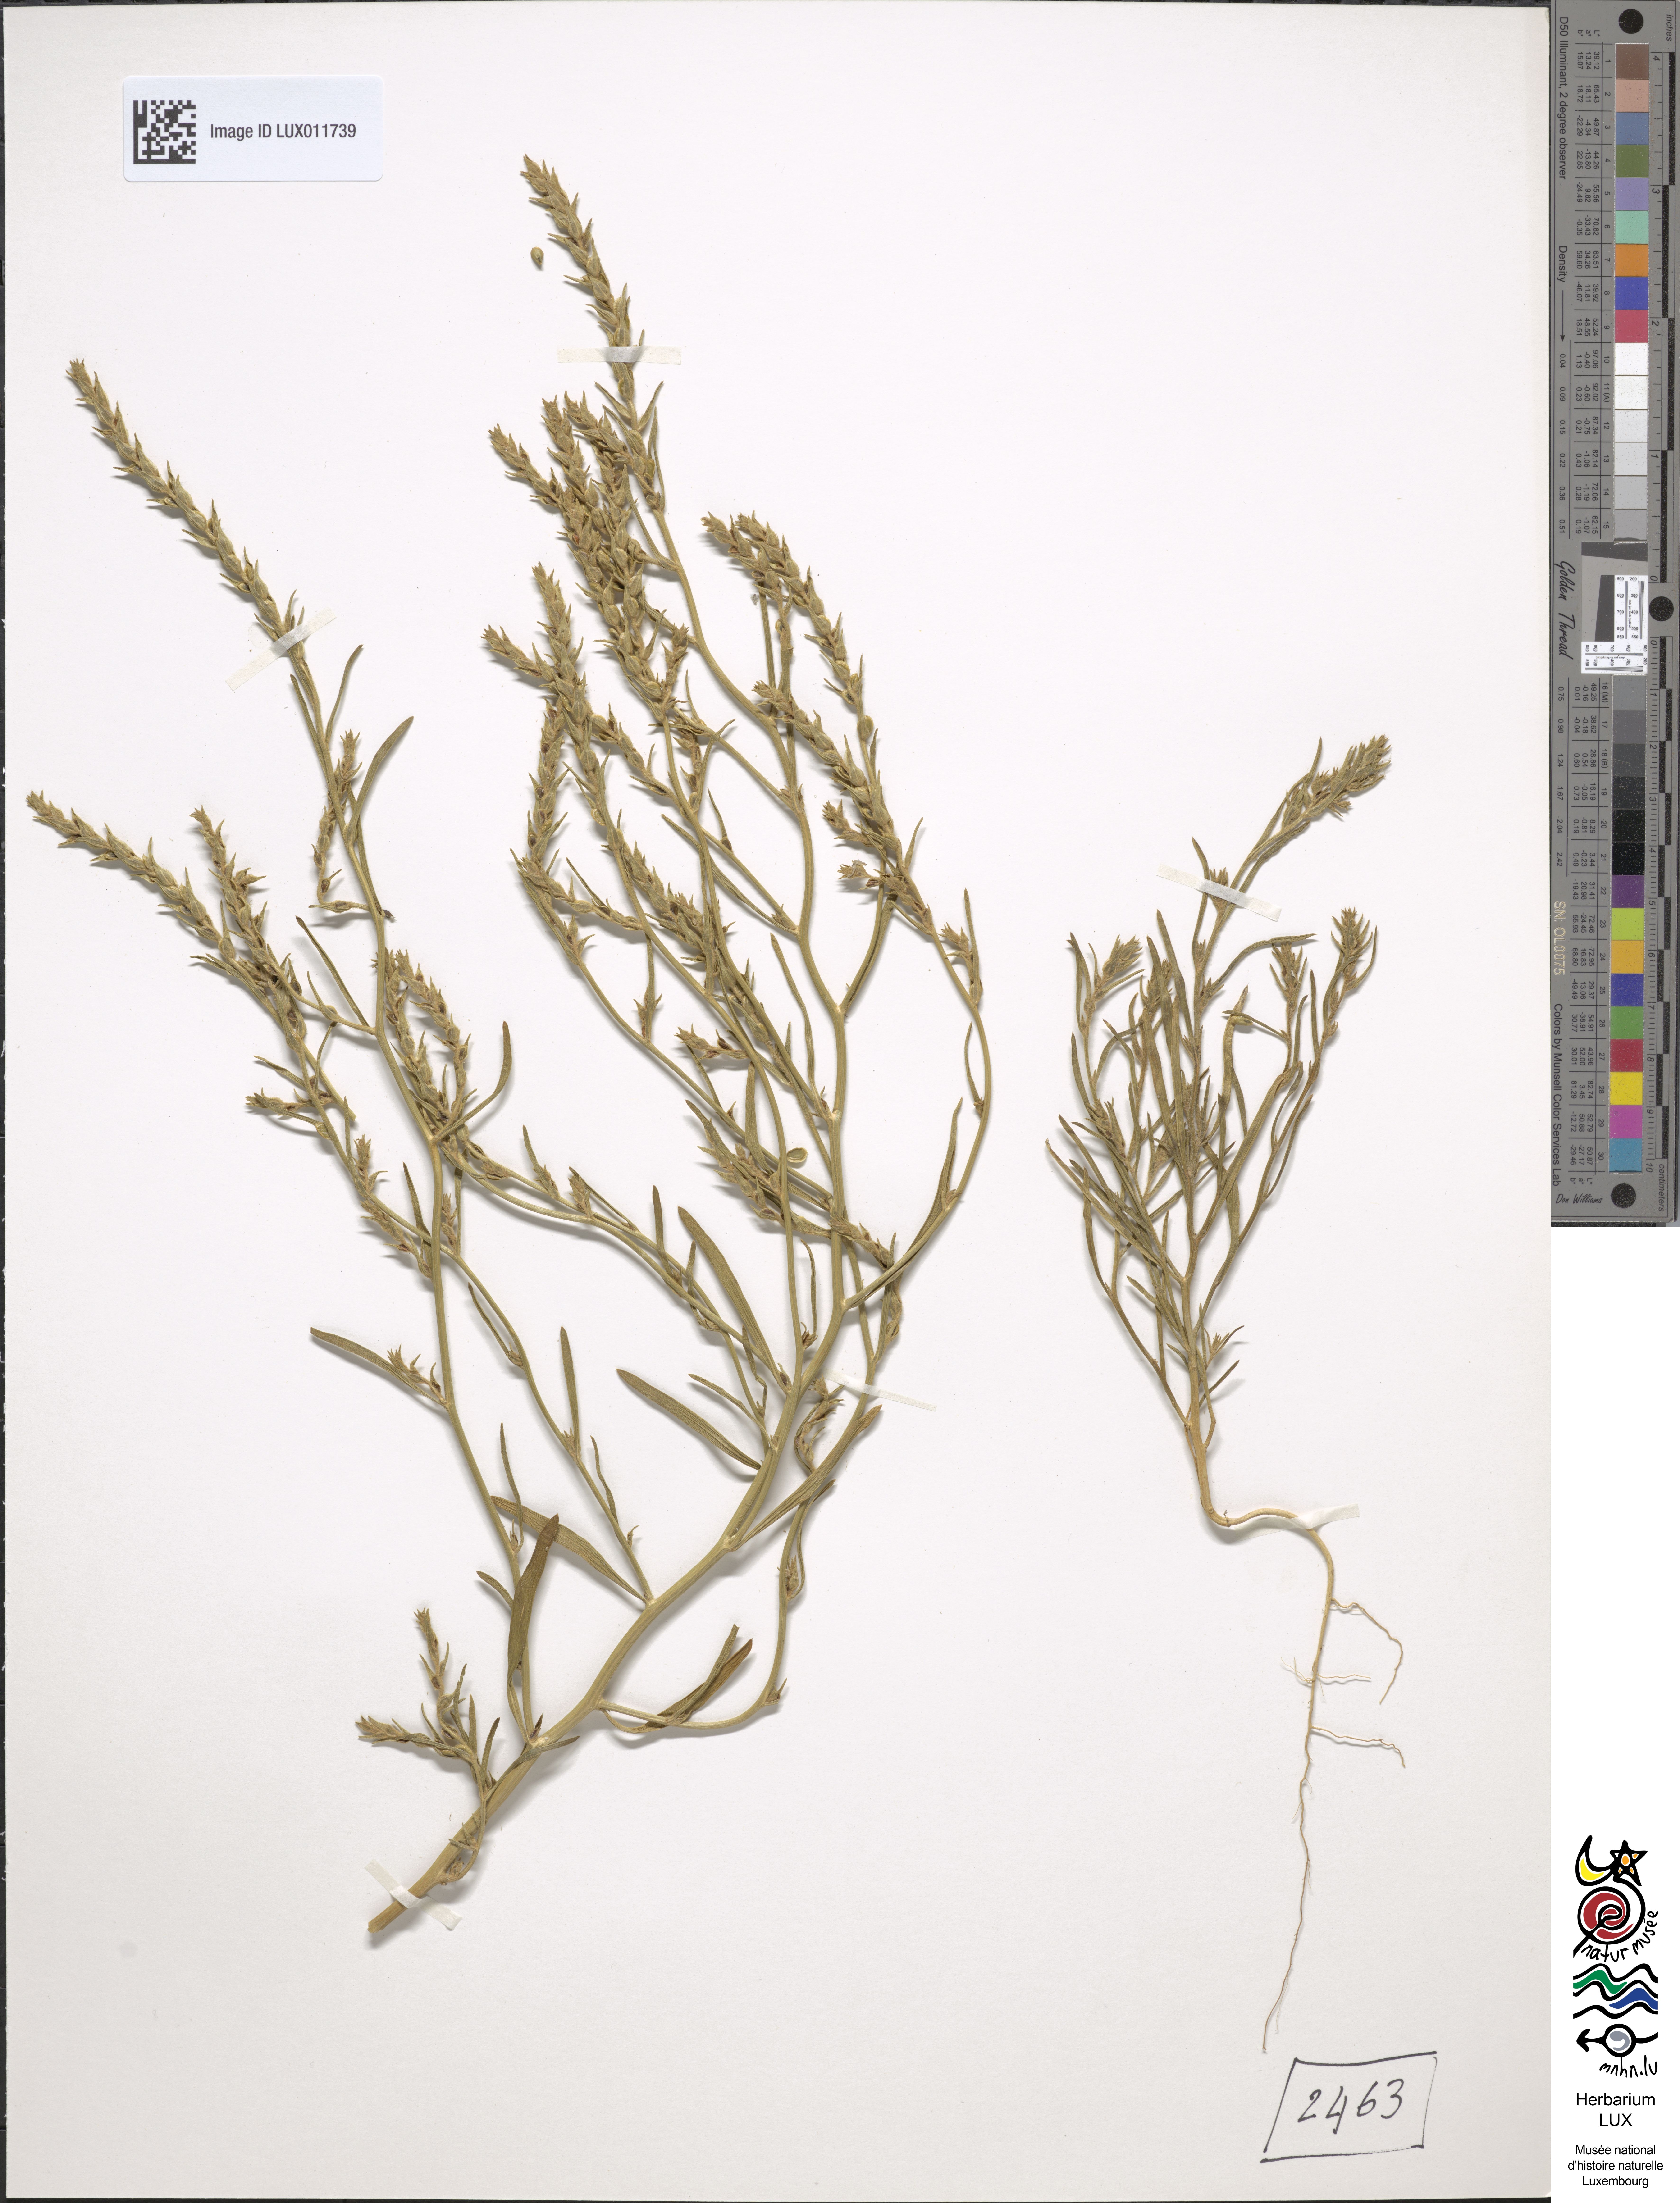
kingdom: Plantae
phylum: Tracheophyta
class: Magnoliopsida
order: Caryophyllales
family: Amaranthaceae
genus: Corispermum
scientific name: Corispermum hyssopifolium
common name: Bugseed
